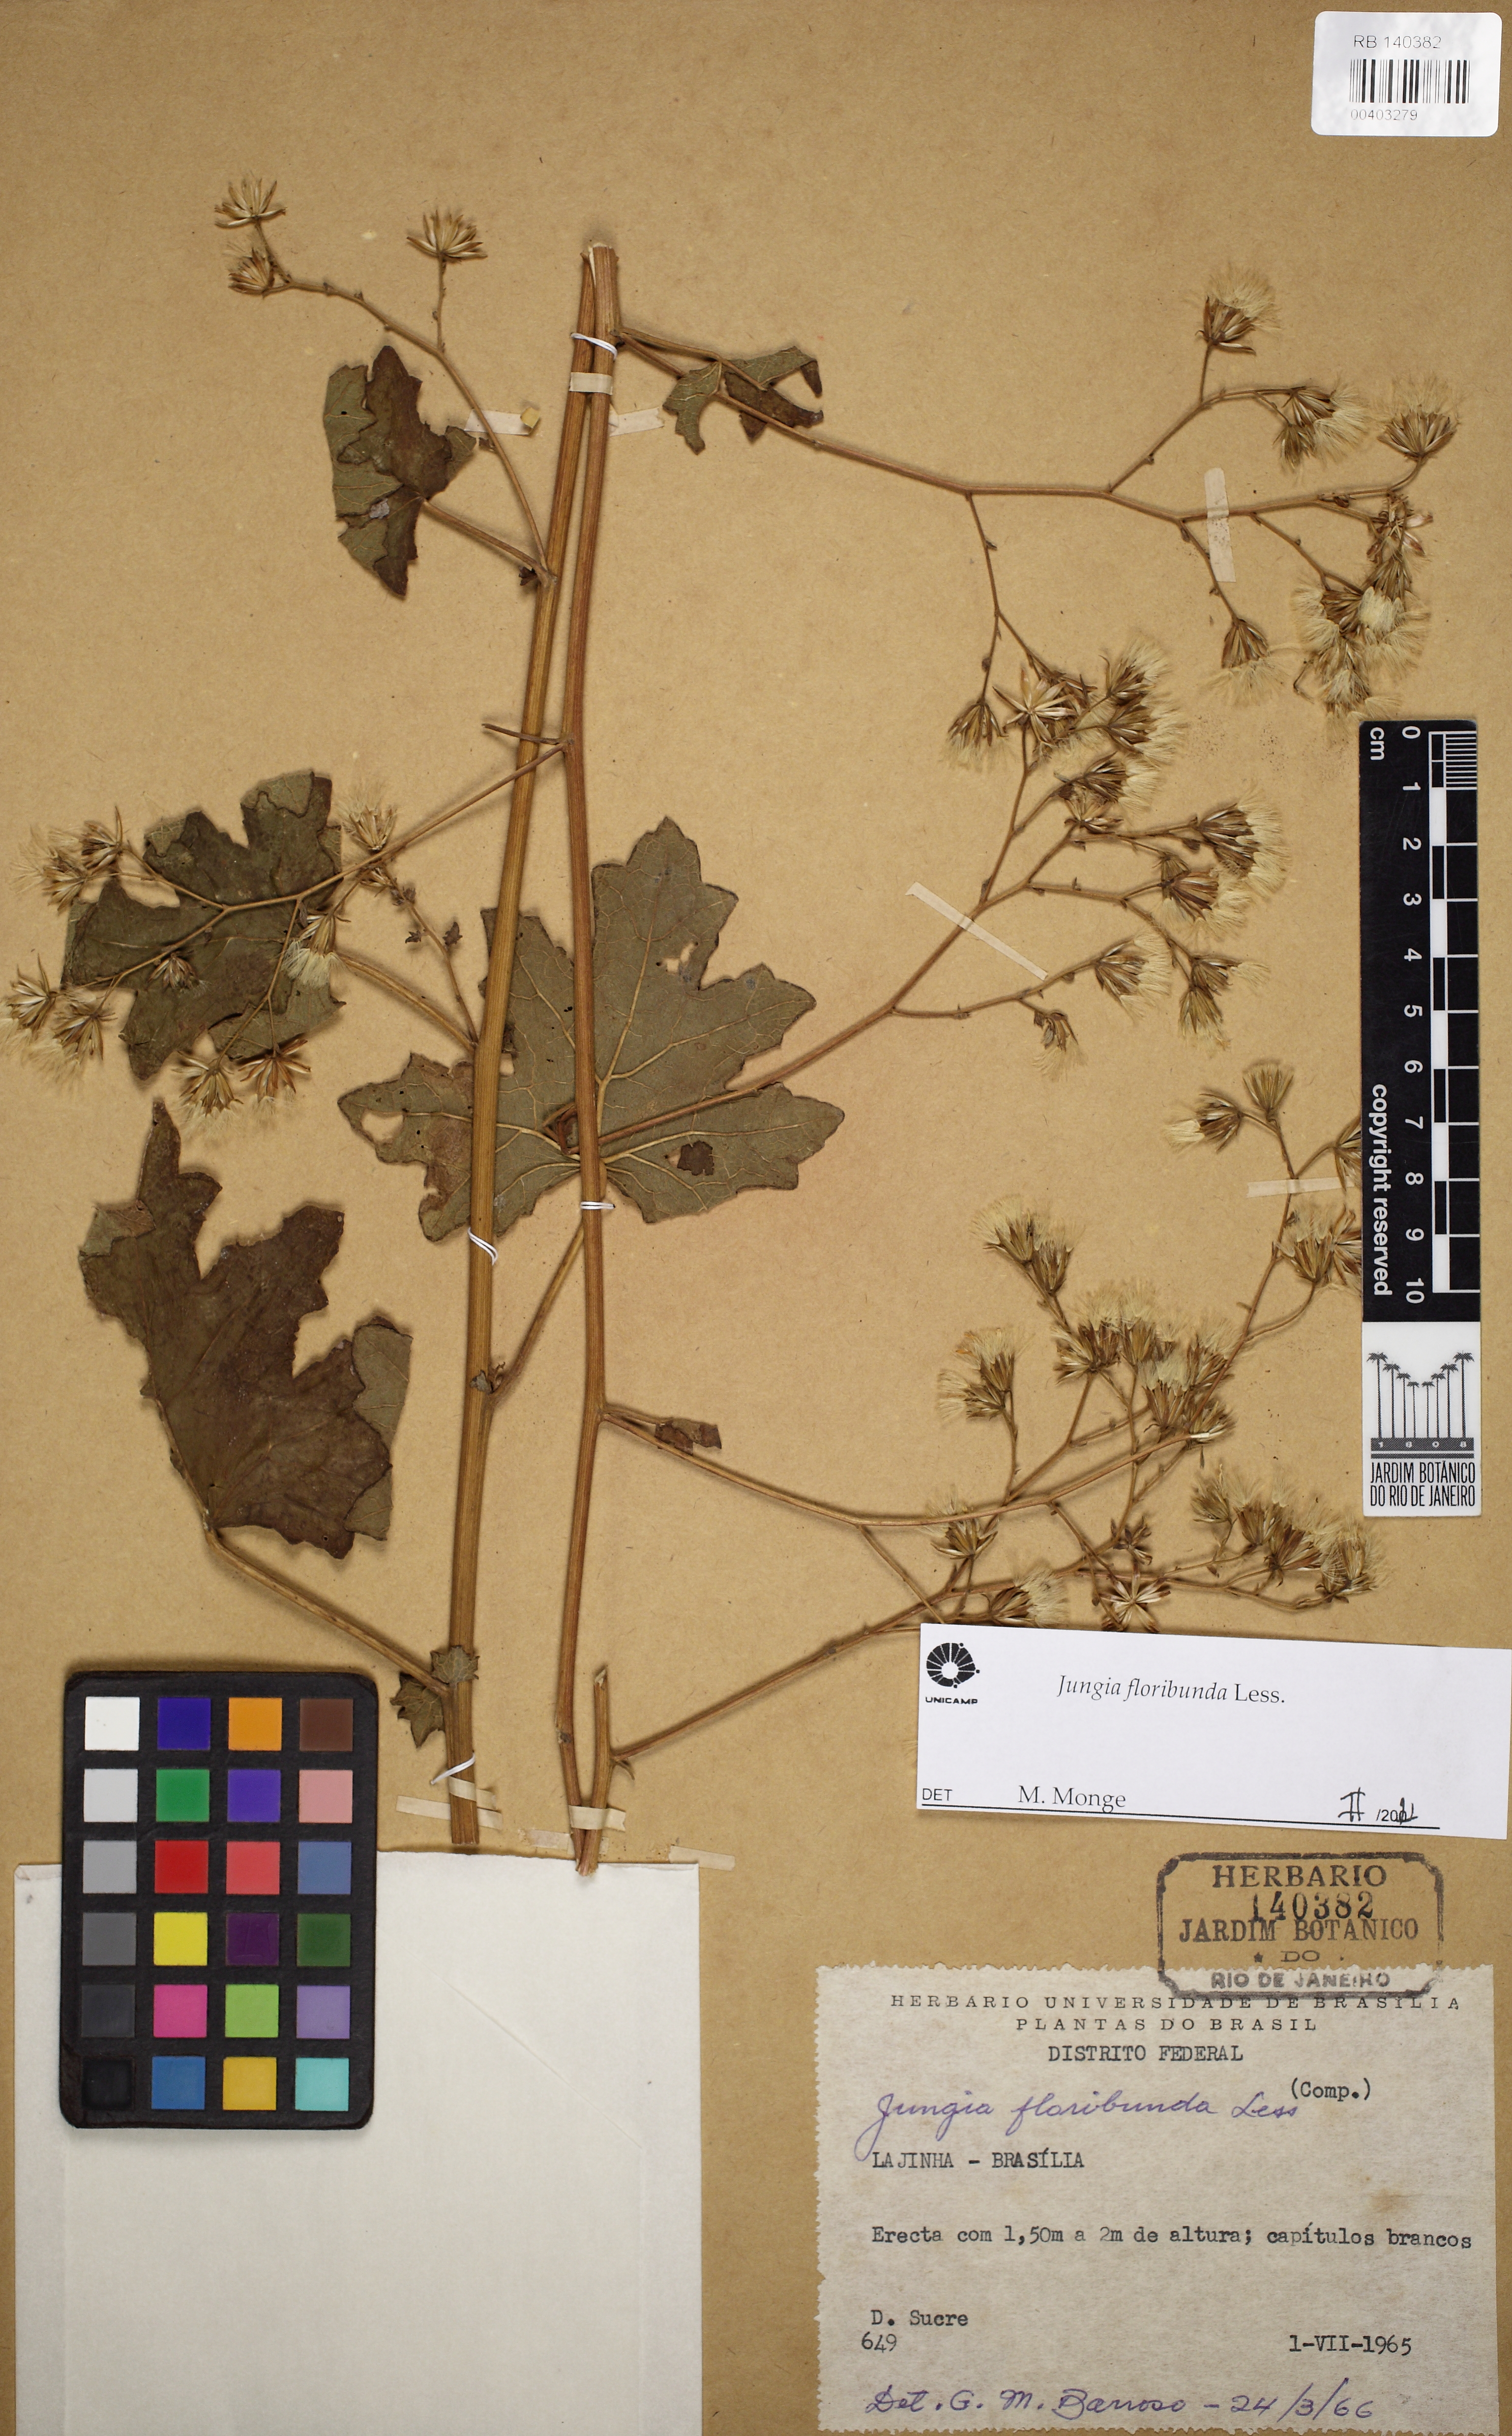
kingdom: Plantae
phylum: Tracheophyta
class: Magnoliopsida
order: Asterales
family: Asteraceae
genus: Jungia
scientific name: Jungia floribunda
